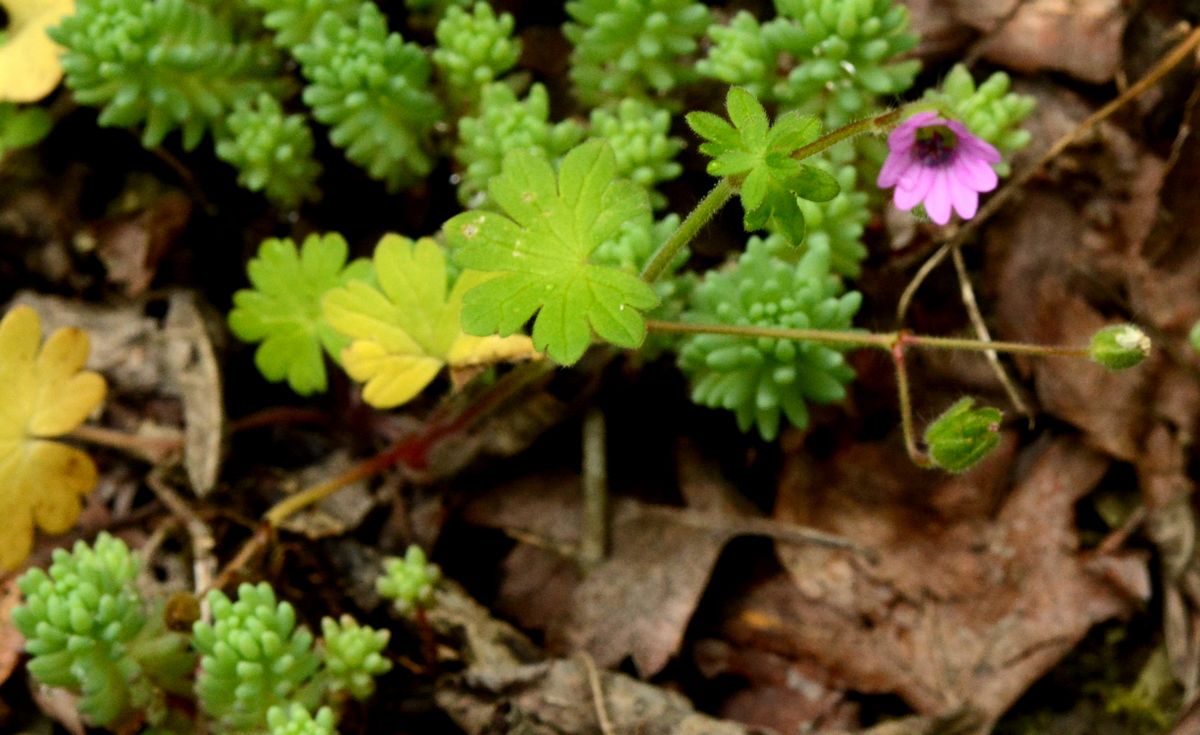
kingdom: Plantae
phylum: Tracheophyta
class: Magnoliopsida
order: Geraniales
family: Geraniaceae
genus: Geranium
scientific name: Geranium molle
